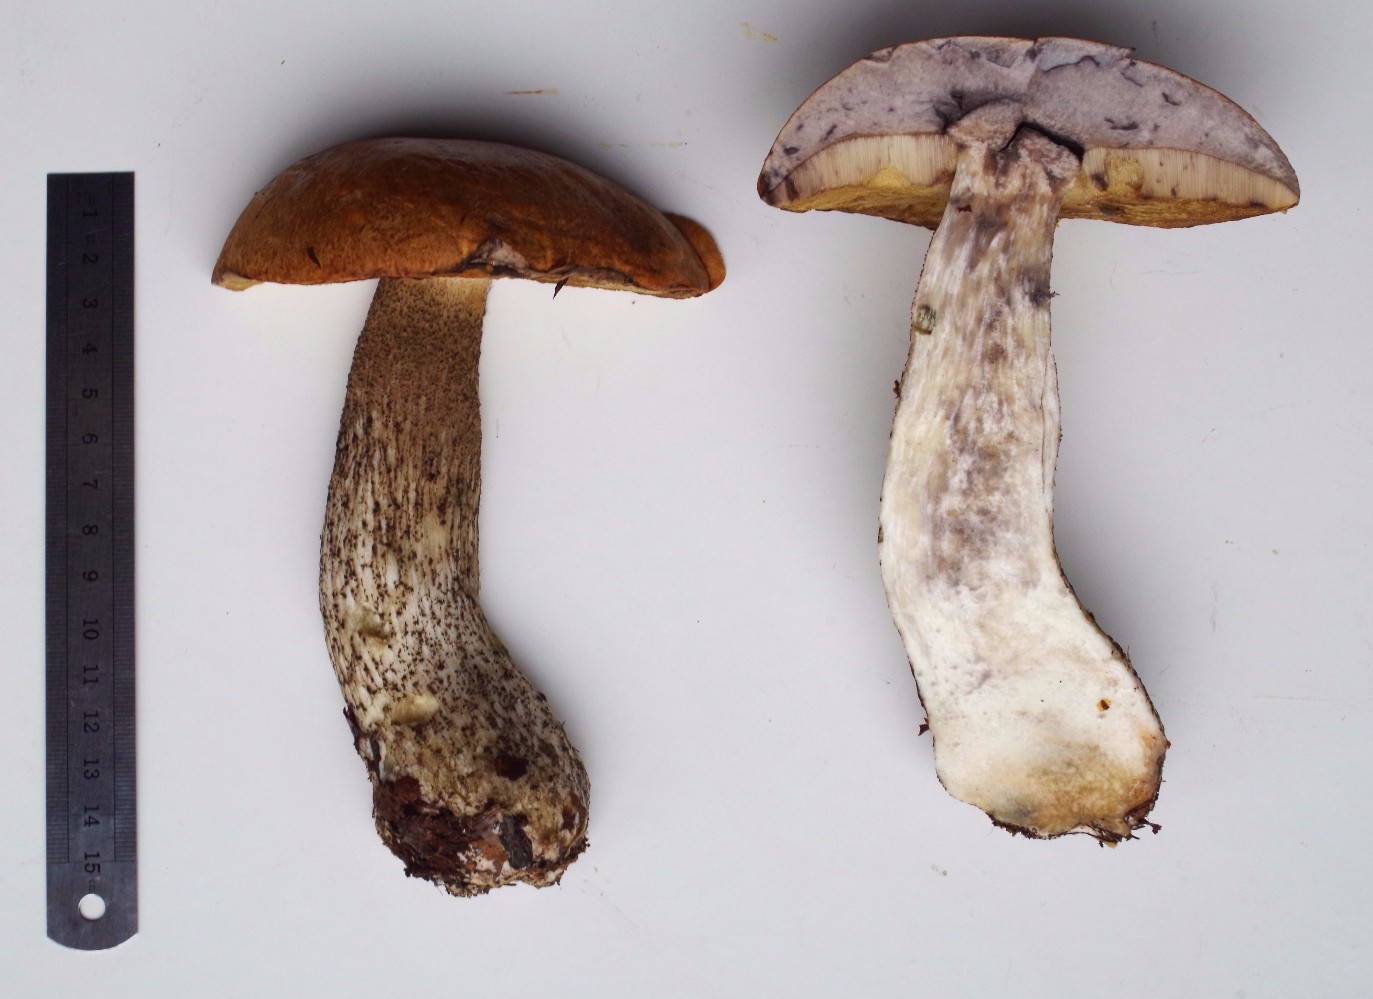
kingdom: Fungi
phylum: Basidiomycota
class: Agaricomycetes
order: Boletales
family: Boletaceae
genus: Leccinum
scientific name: Leccinum versipelle
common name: orange skælrørhat
